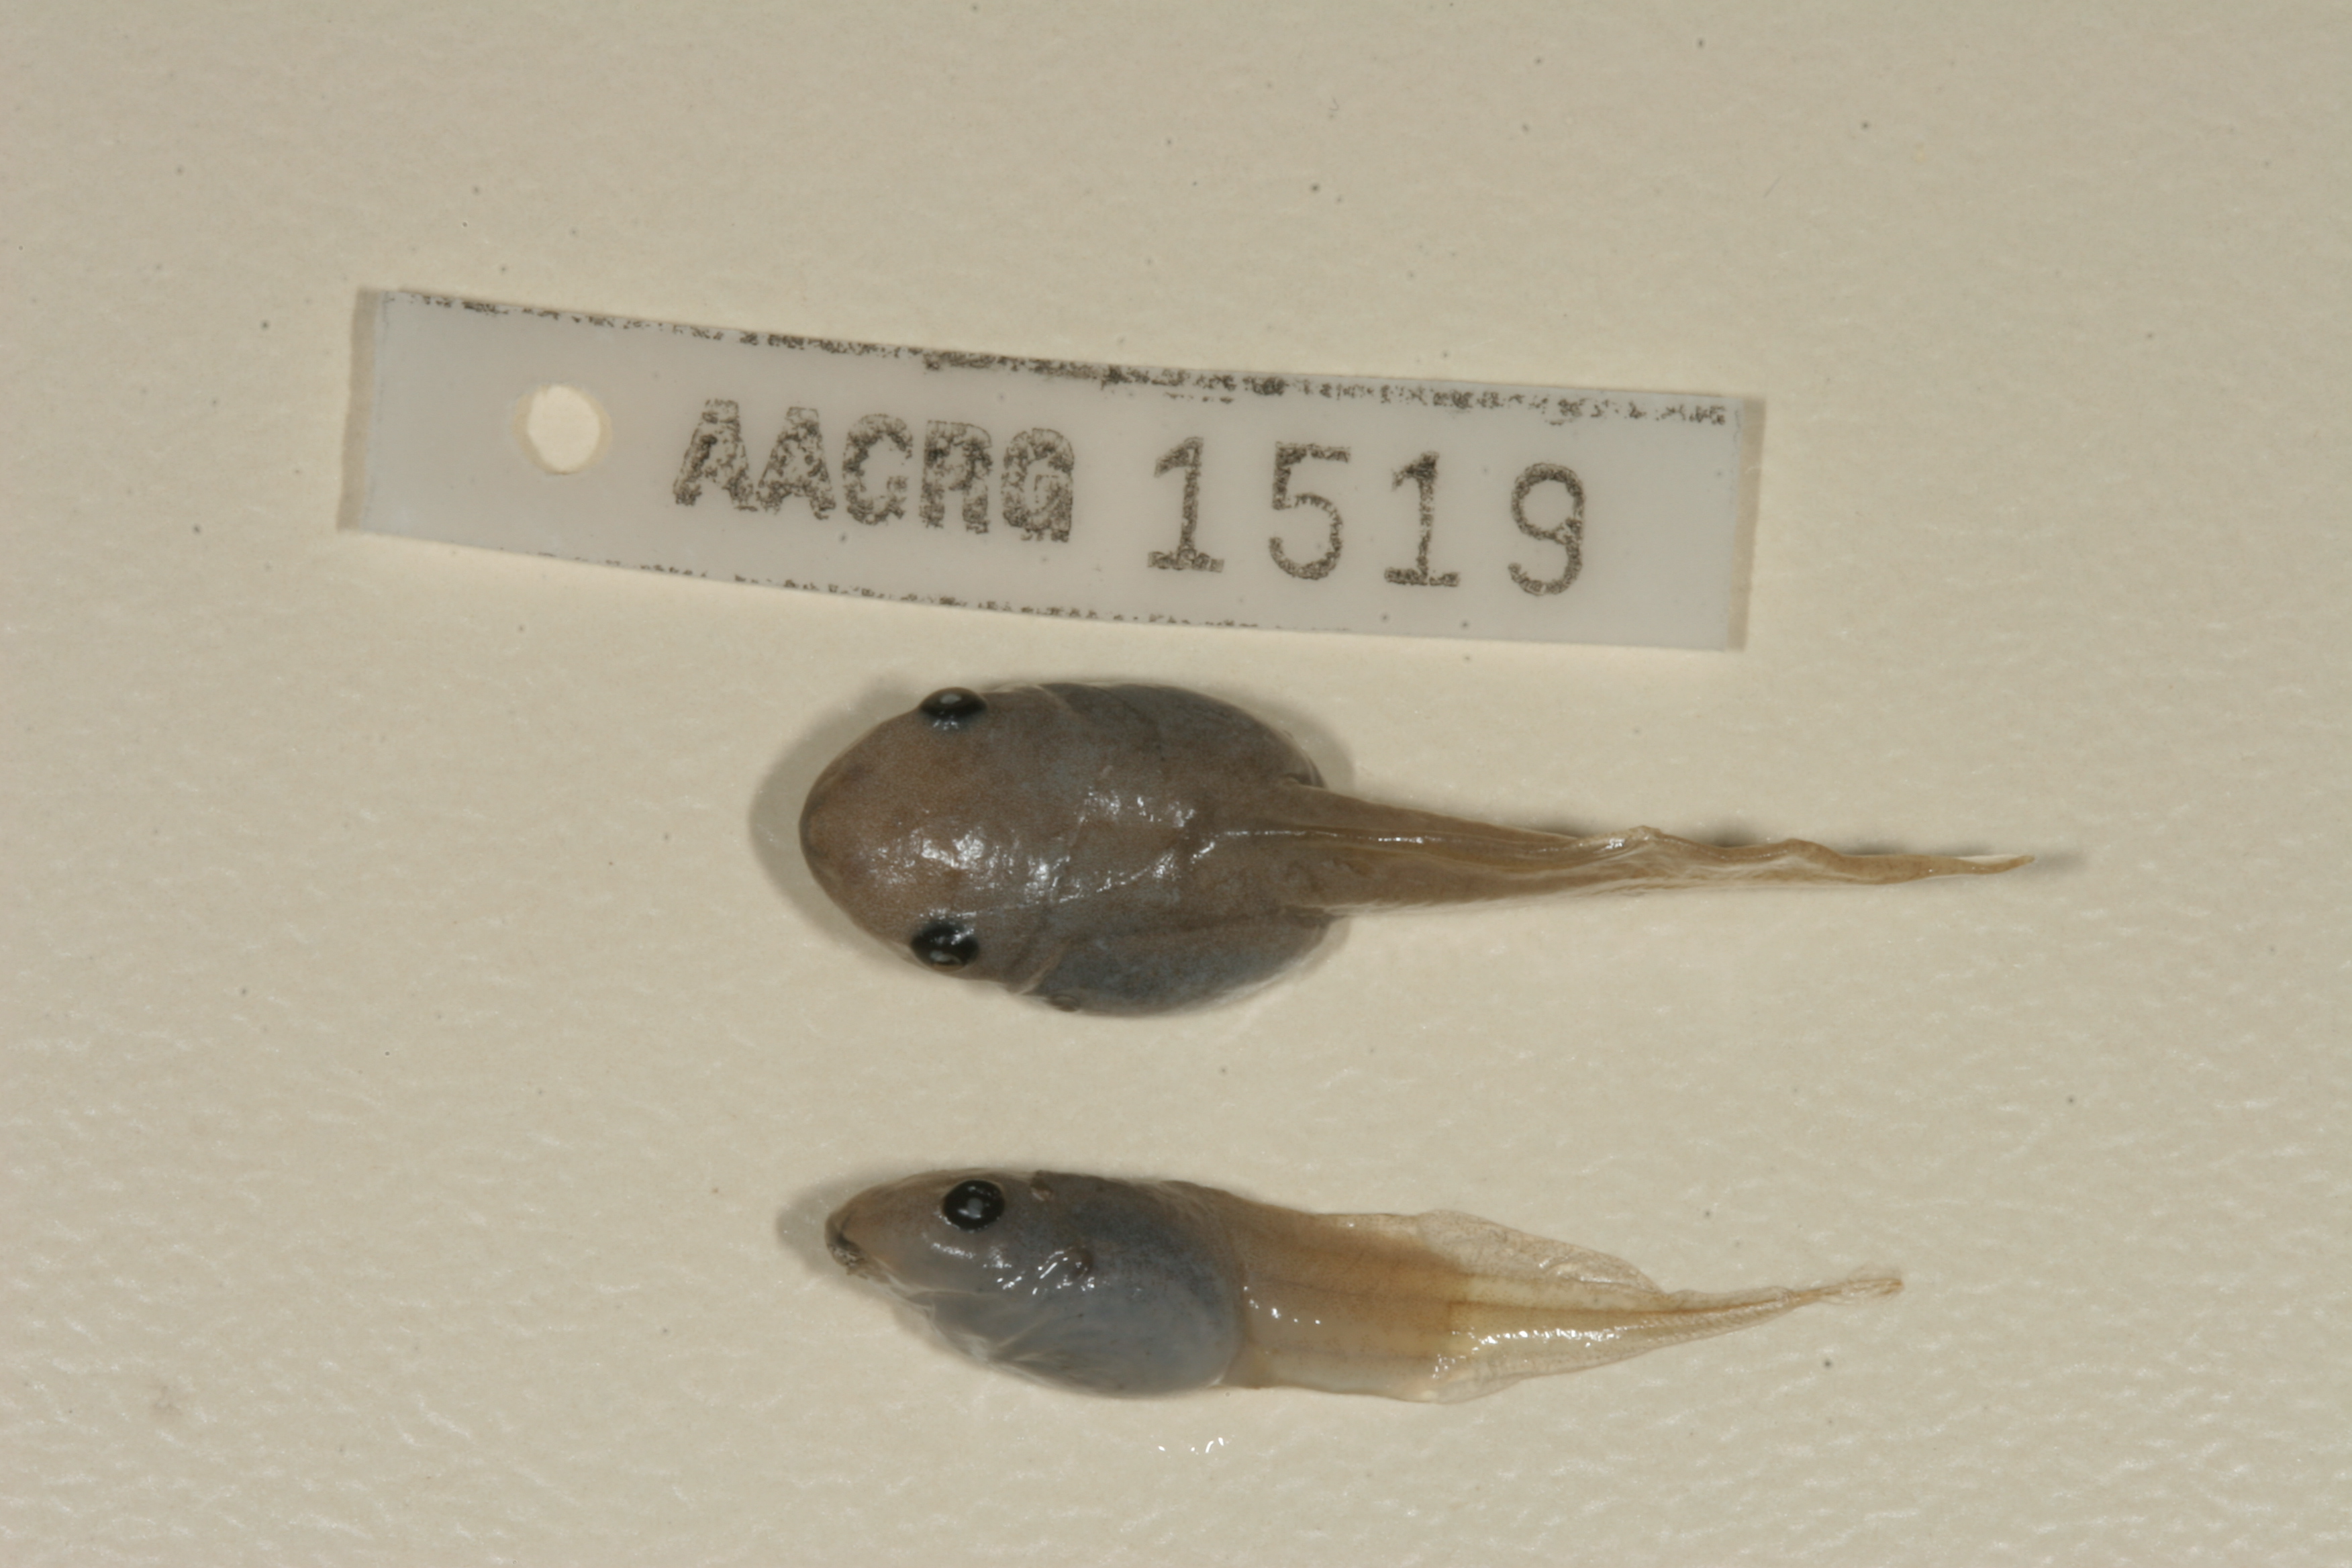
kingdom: Animalia
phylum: Chordata
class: Amphibia
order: Anura
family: Hemisotidae
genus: Hemisus
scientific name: Hemisus marmoratus
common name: Mottled shovel-nosed frog
